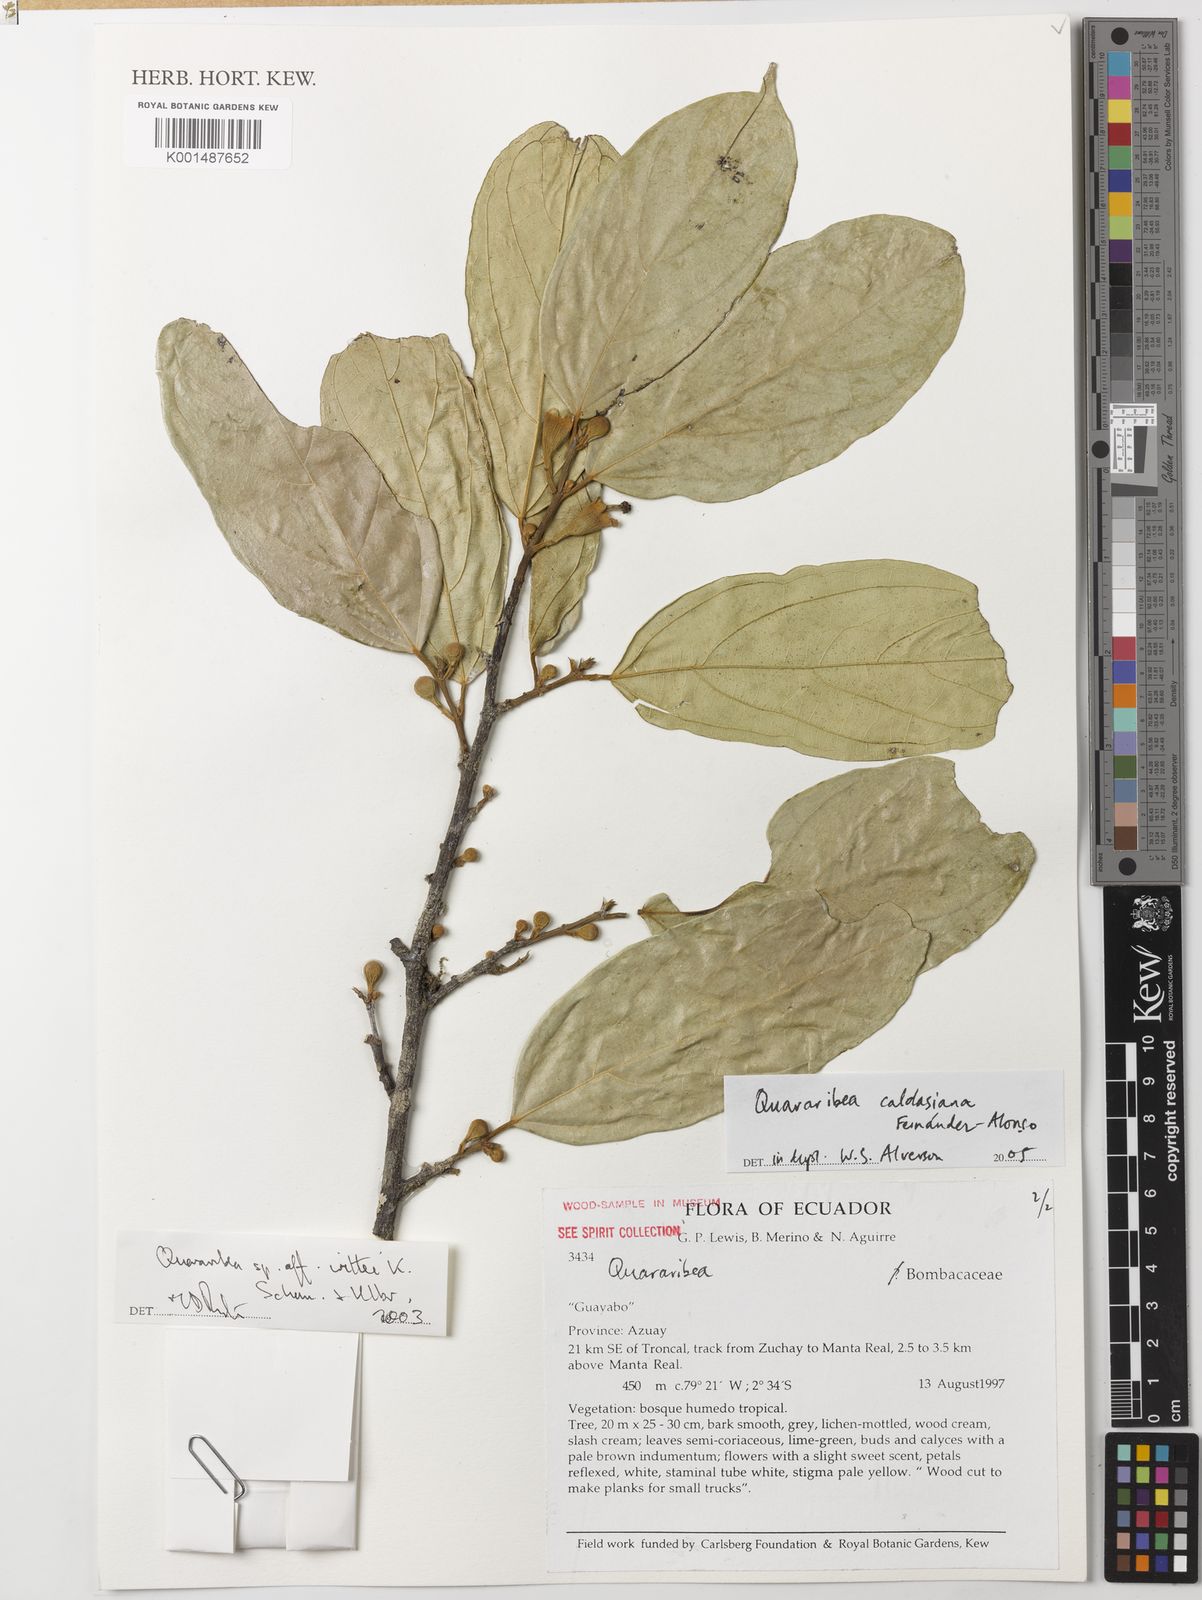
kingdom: Plantae
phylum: Tracheophyta
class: Magnoliopsida
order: Malvales
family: Malvaceae
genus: Quararibea
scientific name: Quararibea caldasiana
